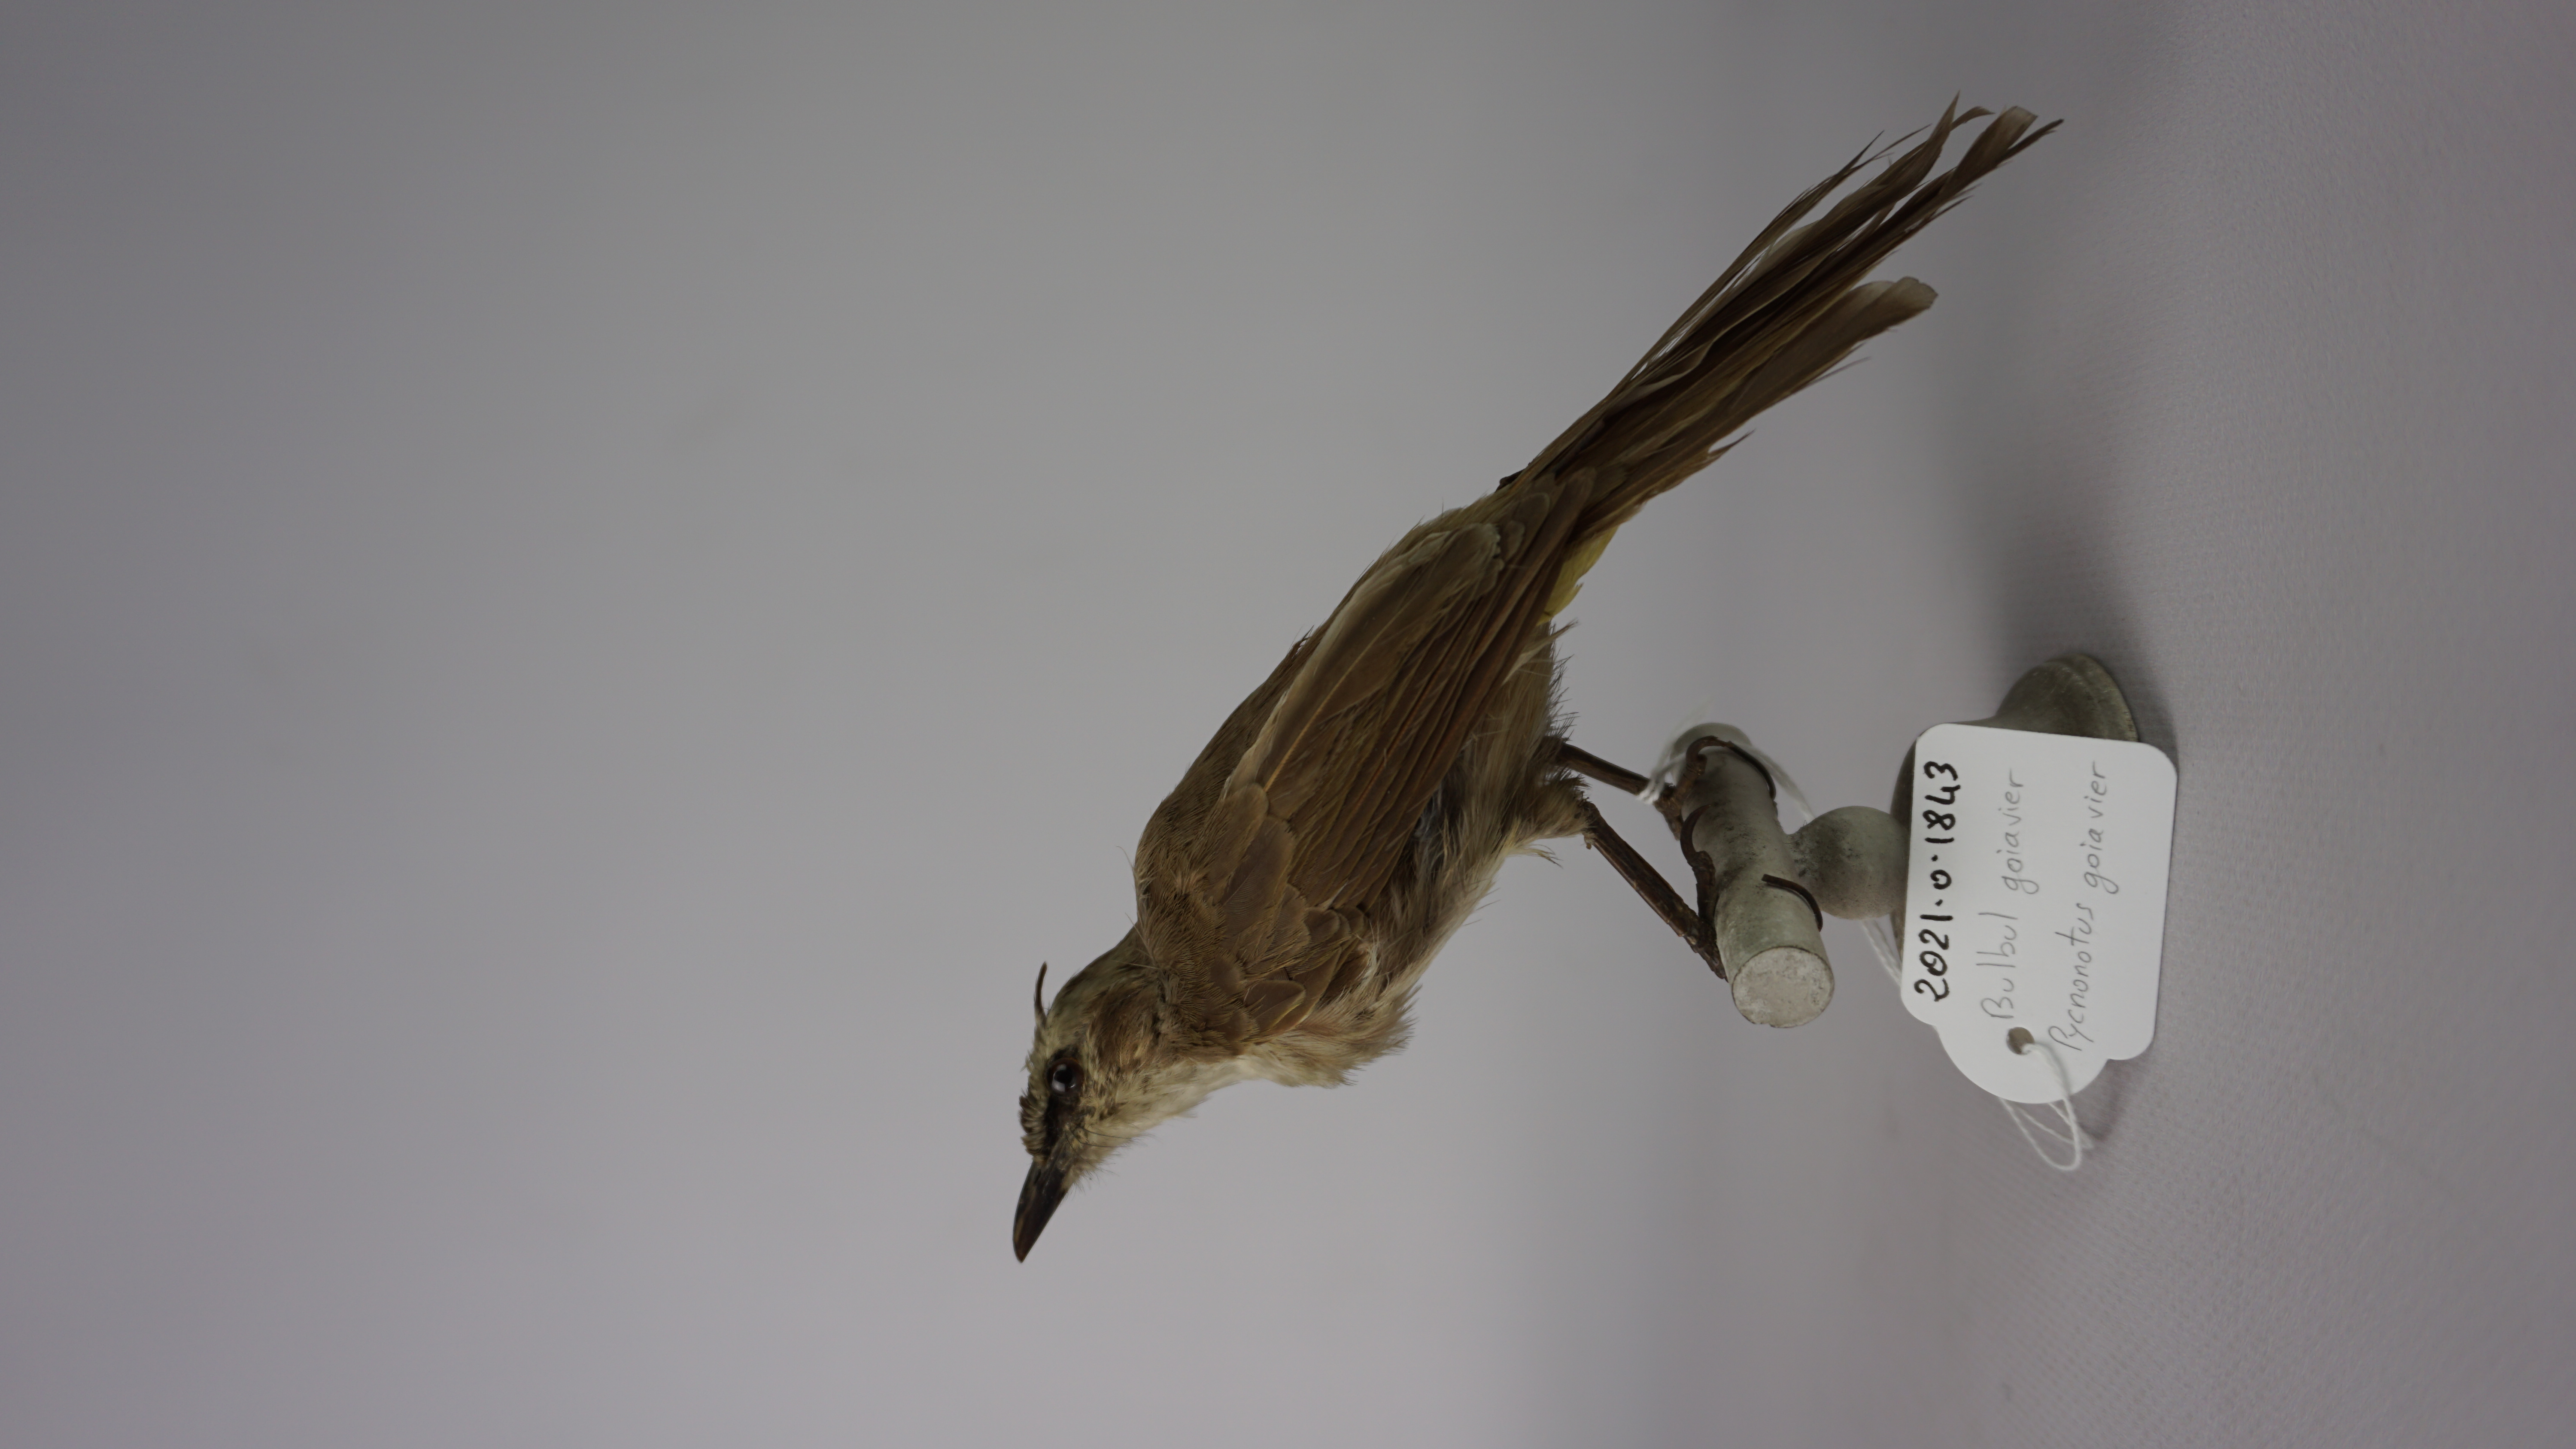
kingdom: Animalia
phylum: Chordata
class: Aves
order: Passeriformes
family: Pycnonotidae
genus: Pycnonotus
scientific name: Pycnonotus goiavier
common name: Yellow-vented bulbul
